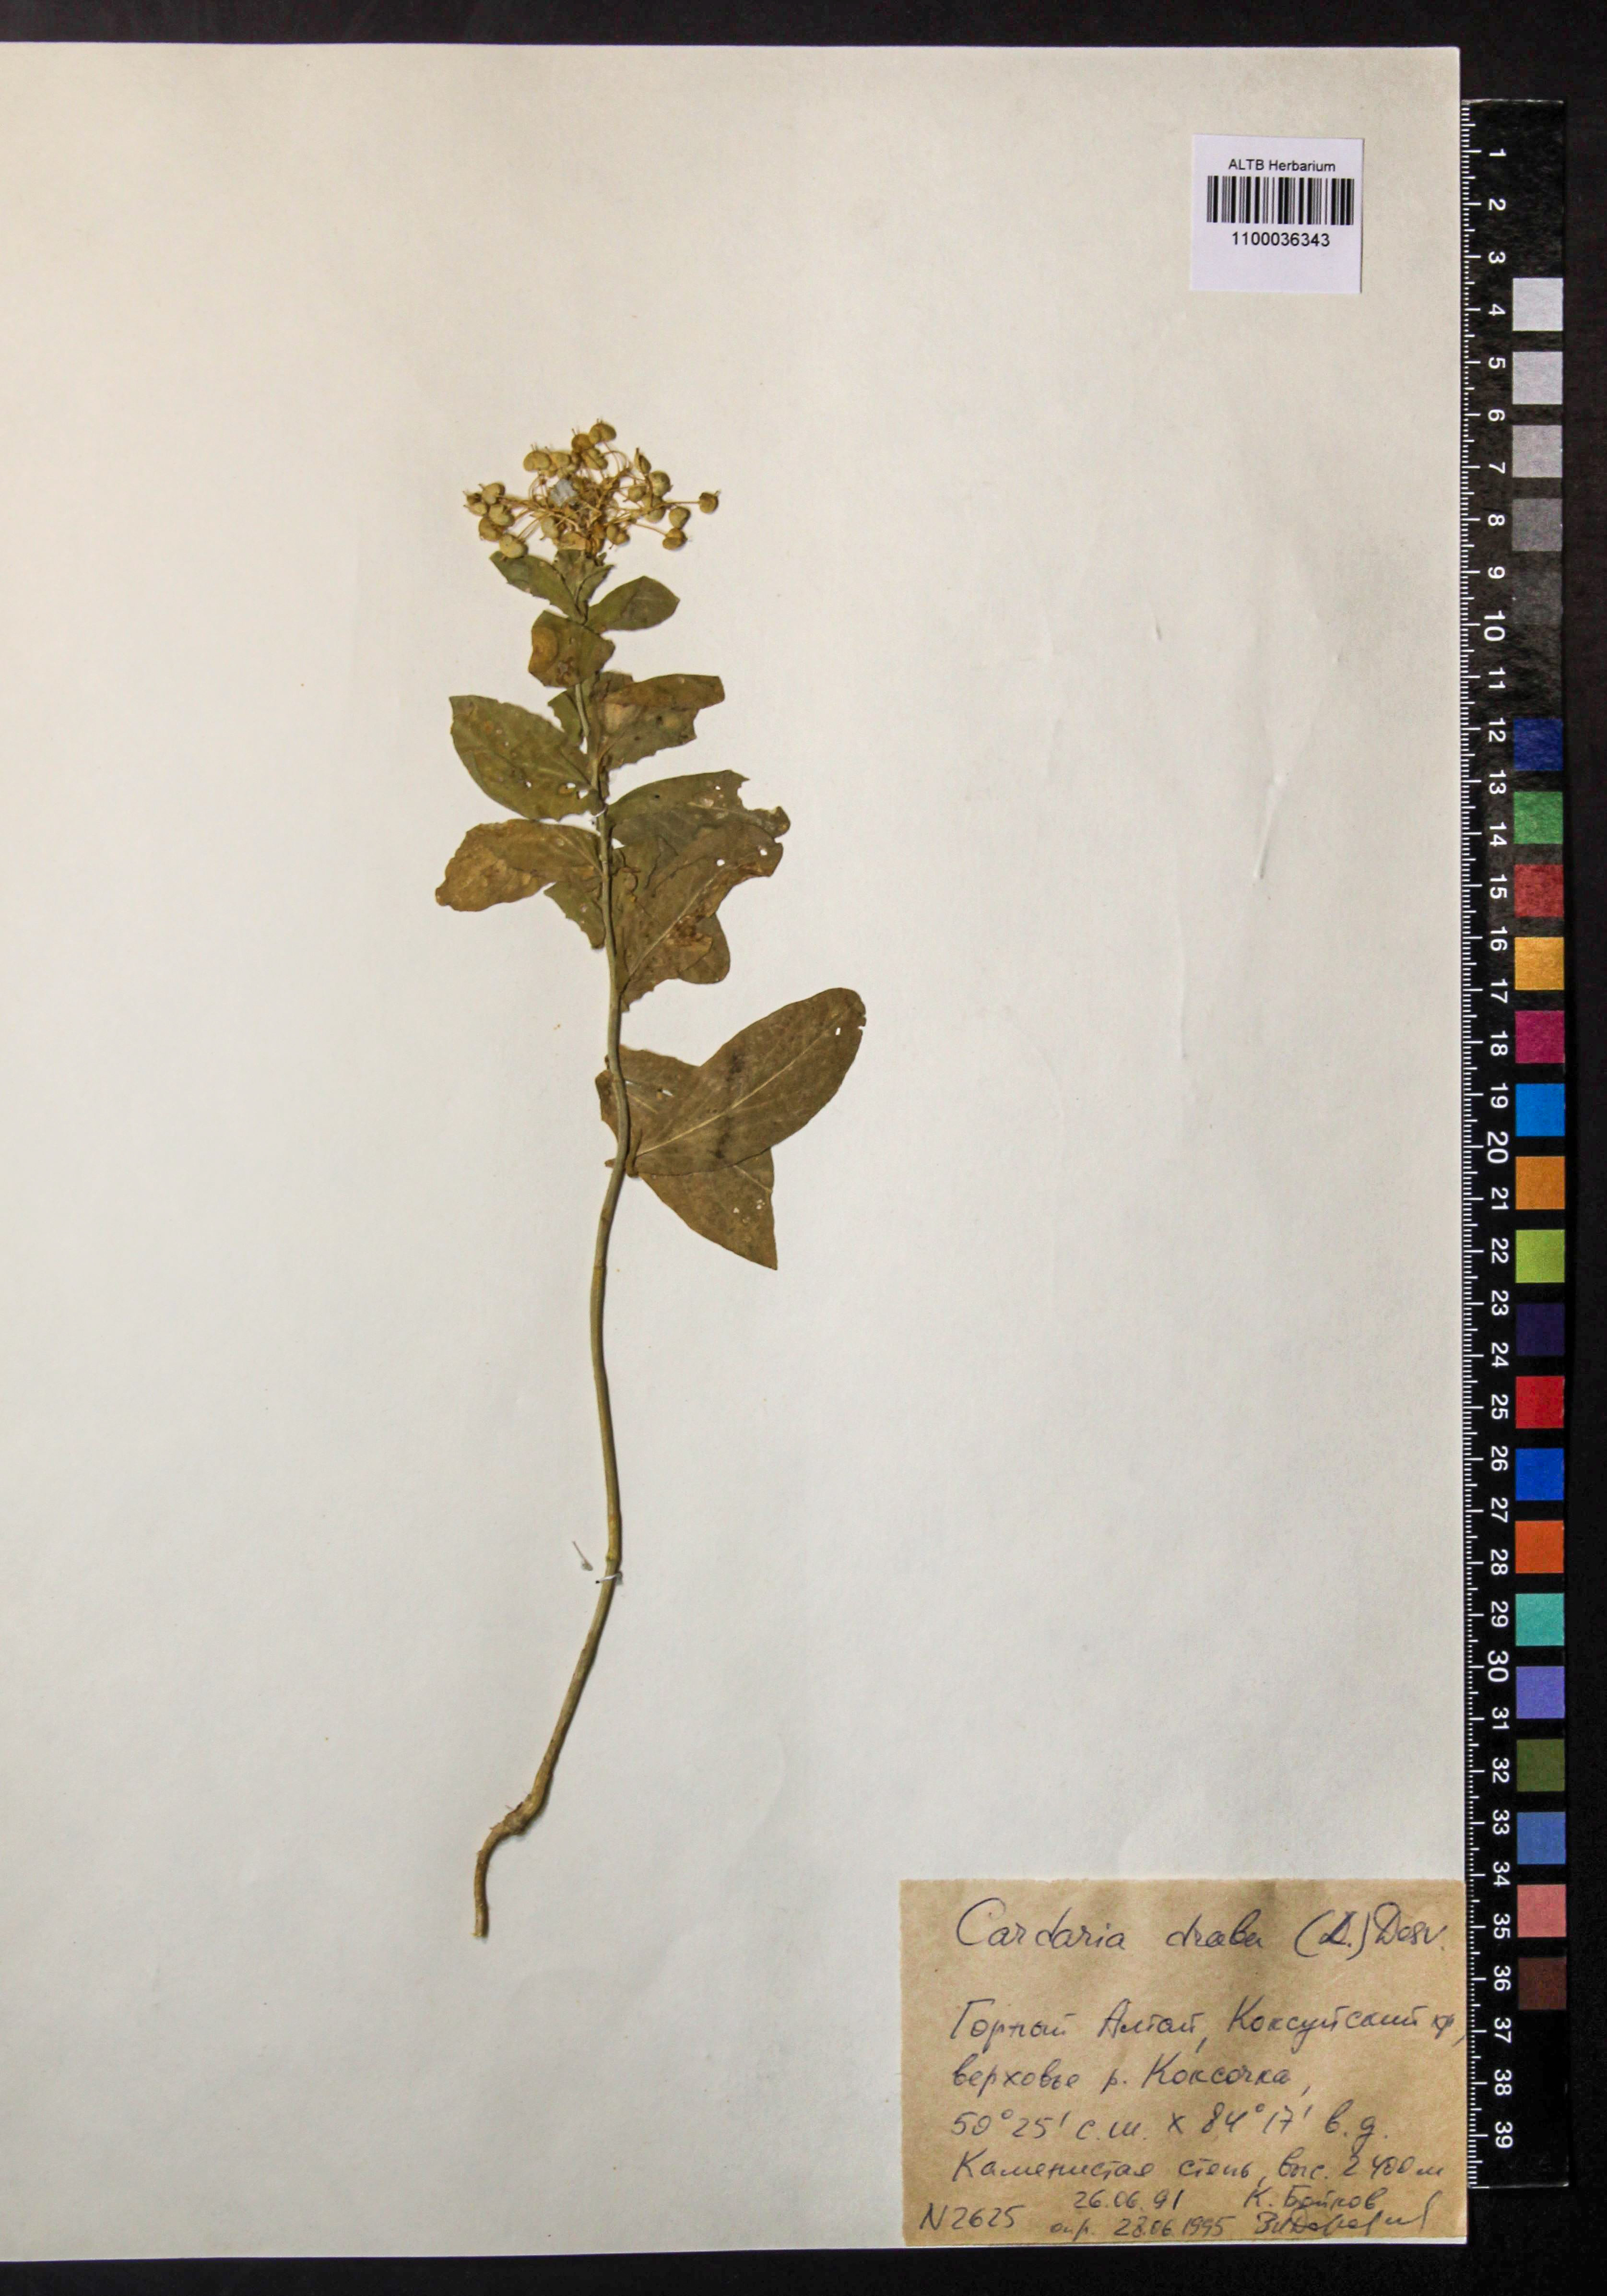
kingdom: Plantae
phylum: Tracheophyta
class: Magnoliopsida
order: Brassicales
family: Brassicaceae
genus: Lepidium
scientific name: Lepidium draba
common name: Hoary cress
